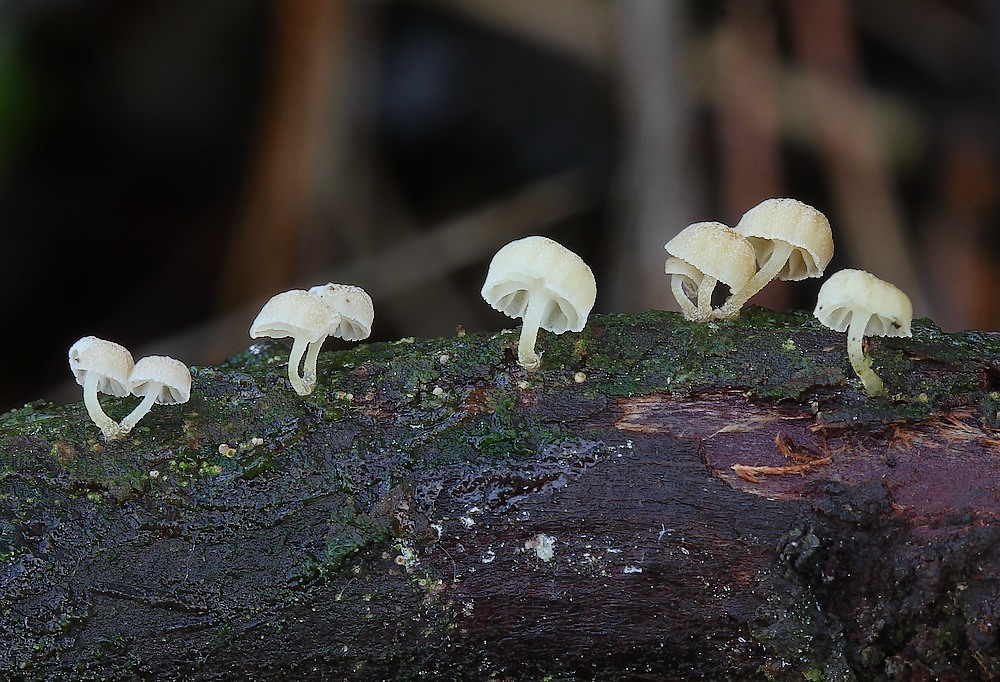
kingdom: Fungi
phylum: Basidiomycota
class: Agaricomycetes
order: Agaricales
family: Mycenaceae
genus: Mycena
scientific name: Mycena juniperina
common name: ene-Huesvamp
